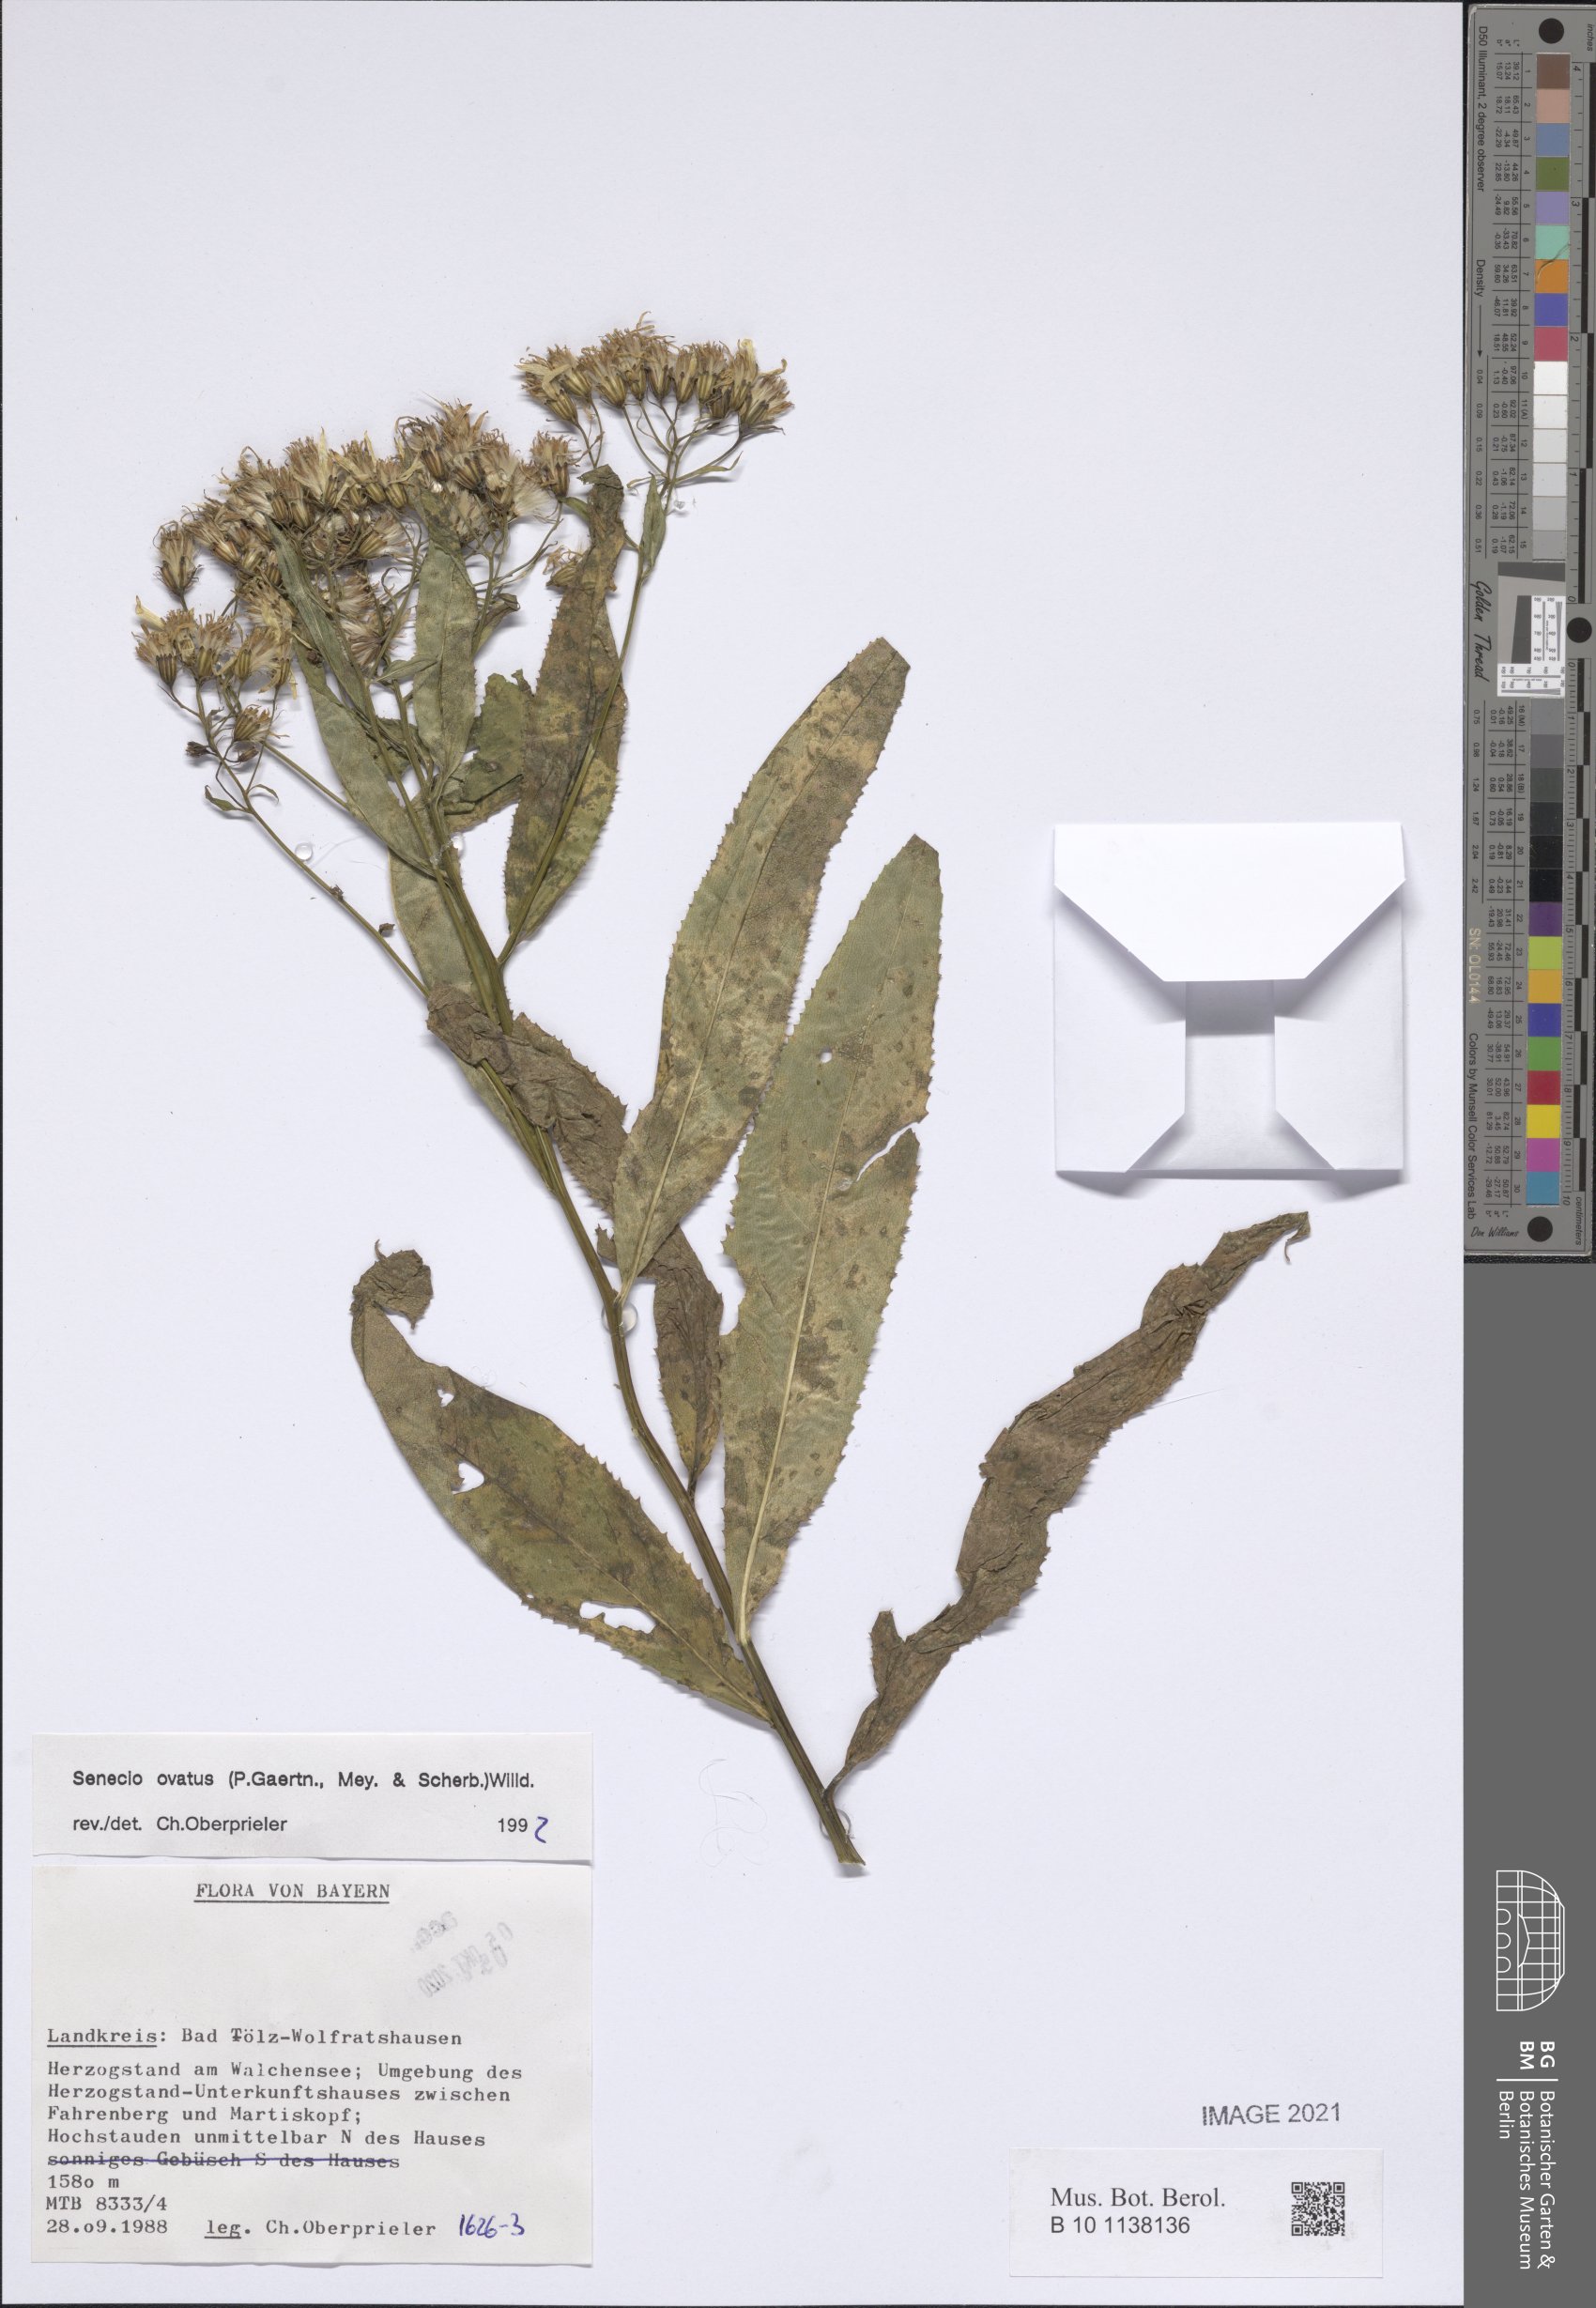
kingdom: Plantae
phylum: Tracheophyta
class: Magnoliopsida
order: Asterales
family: Asteraceae
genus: Senecio
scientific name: Senecio ovatus
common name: Wood ragwort
